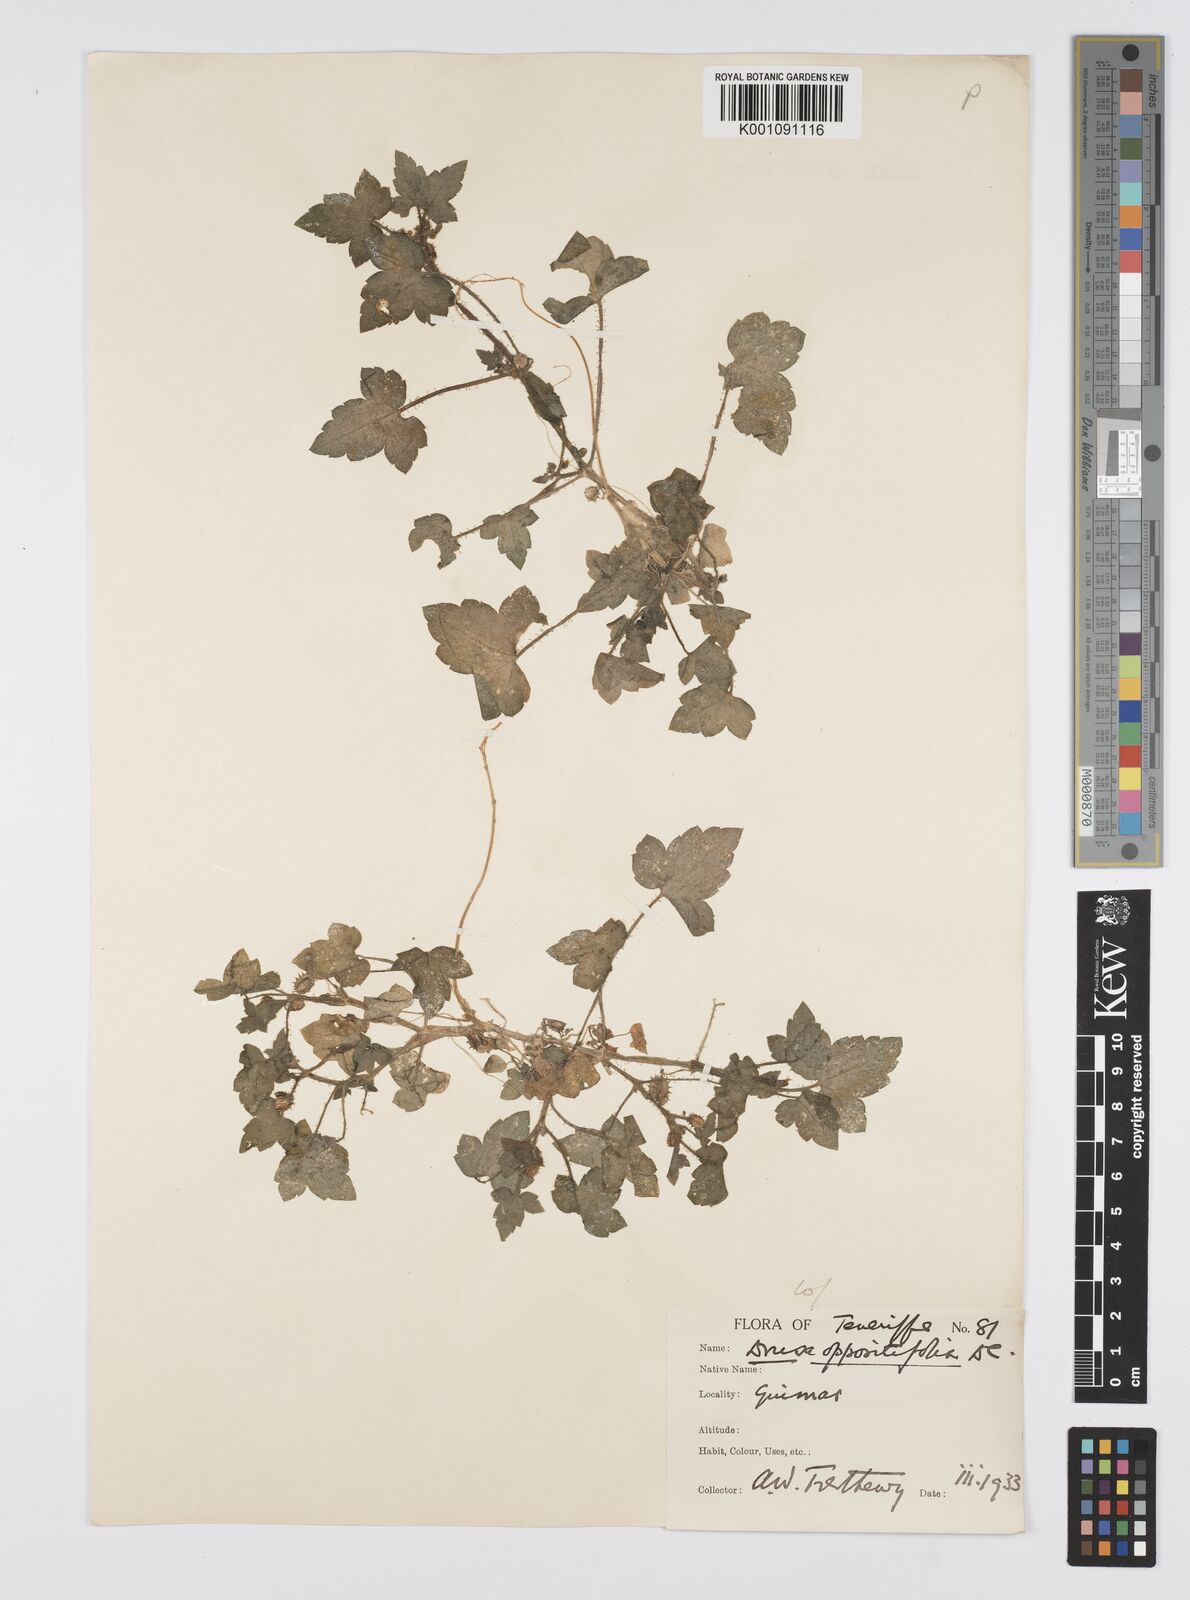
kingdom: Plantae
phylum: Tracheophyta
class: Magnoliopsida
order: Apiales
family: Apiaceae
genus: Drusa
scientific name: Drusa glandulosa
